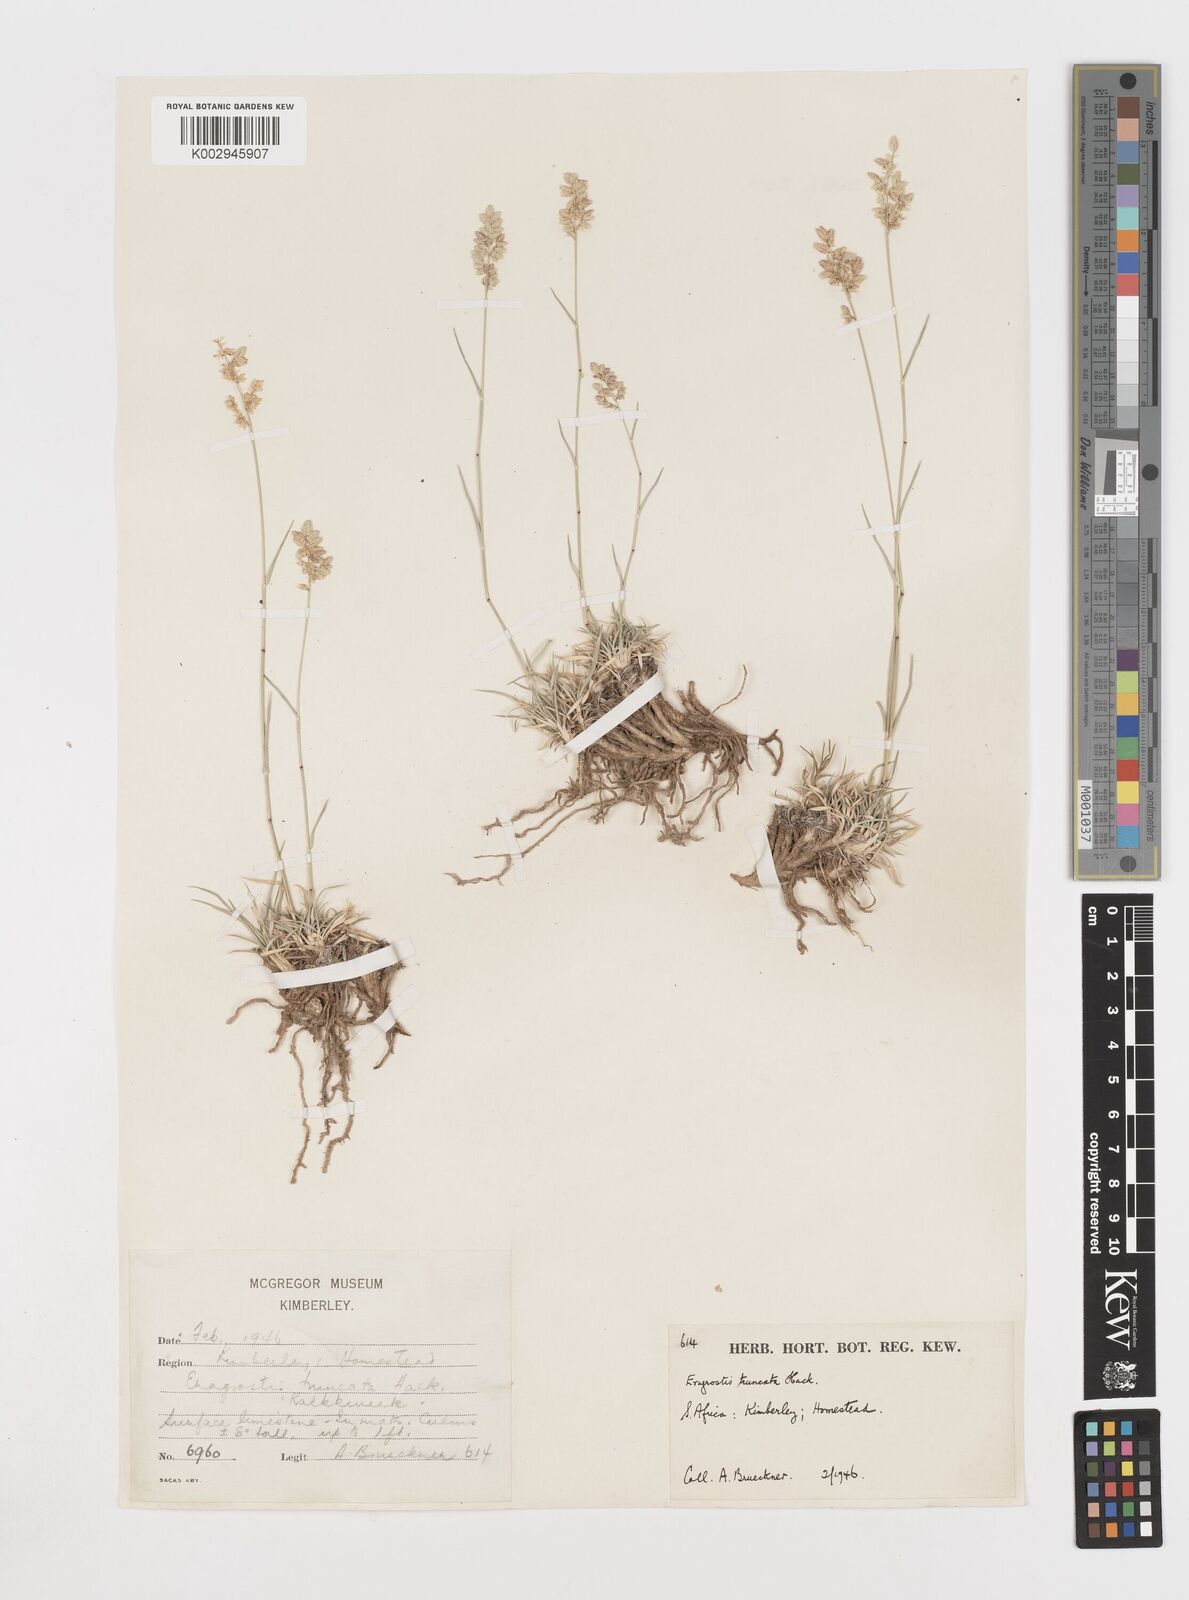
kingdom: Plantae
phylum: Tracheophyta
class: Liliopsida
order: Poales
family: Poaceae
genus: Eragrostis
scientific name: Eragrostis truncata
